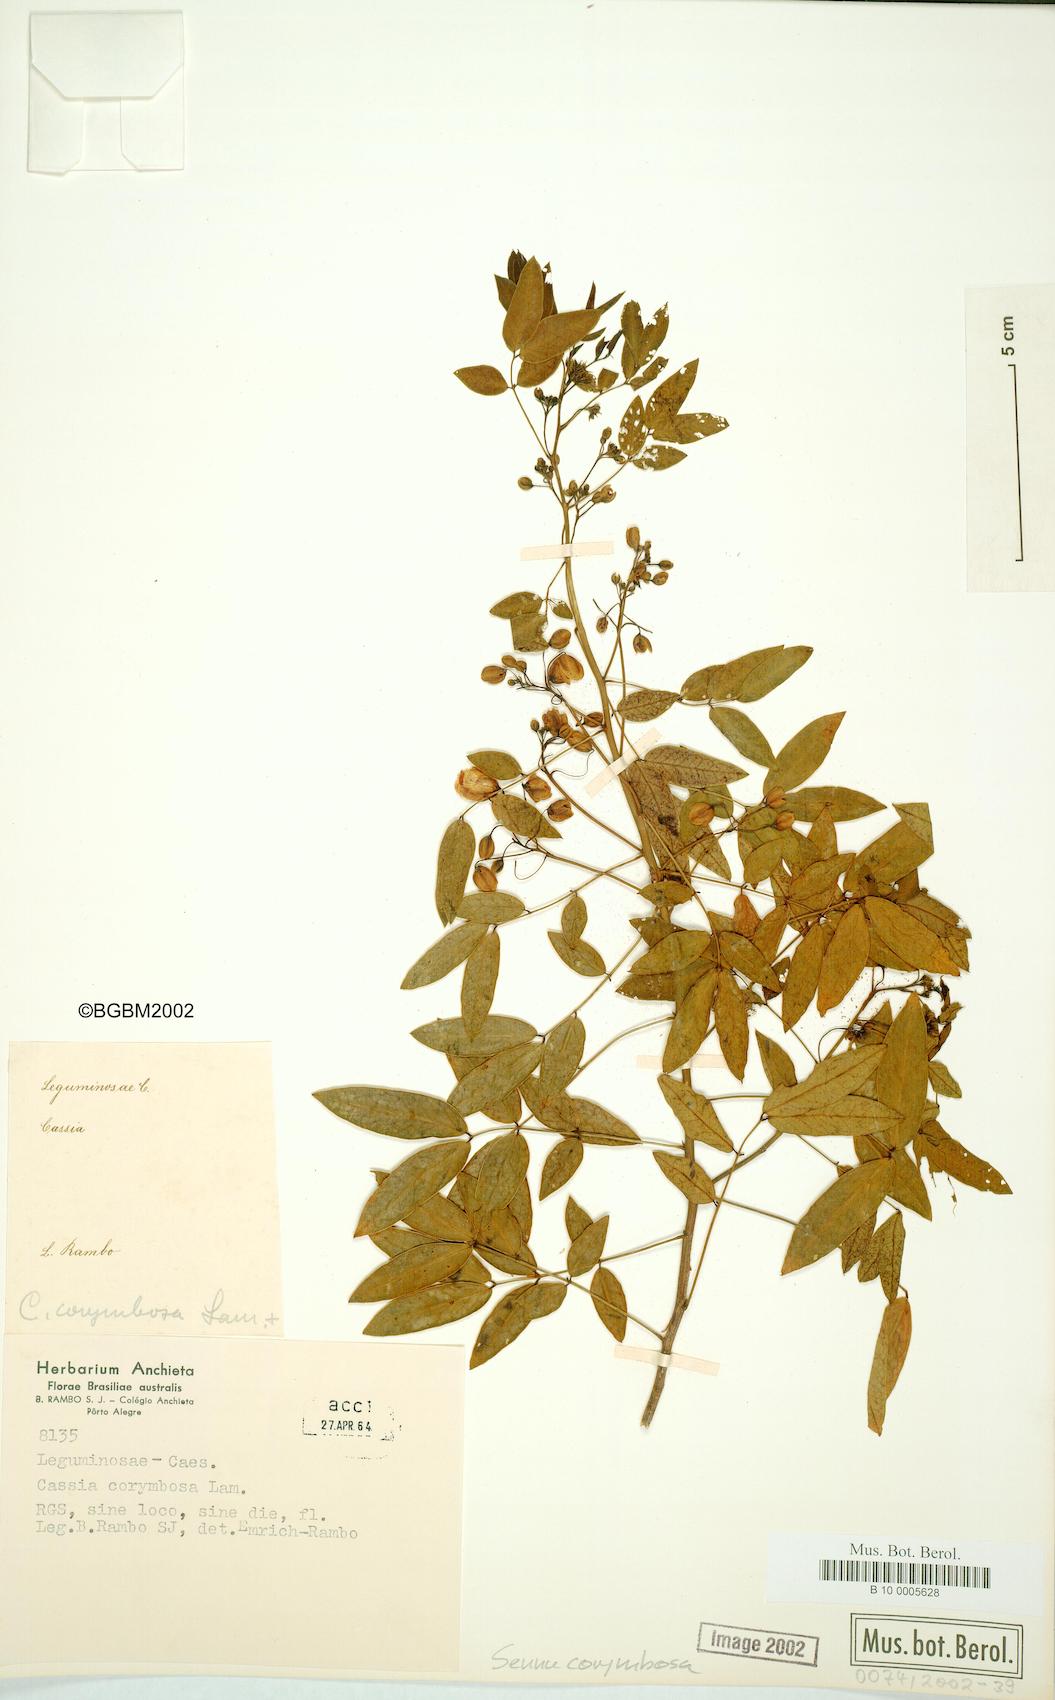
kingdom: Plantae
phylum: Tracheophyta
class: Magnoliopsida
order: Fabales
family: Fabaceae
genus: Senna
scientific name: Senna
